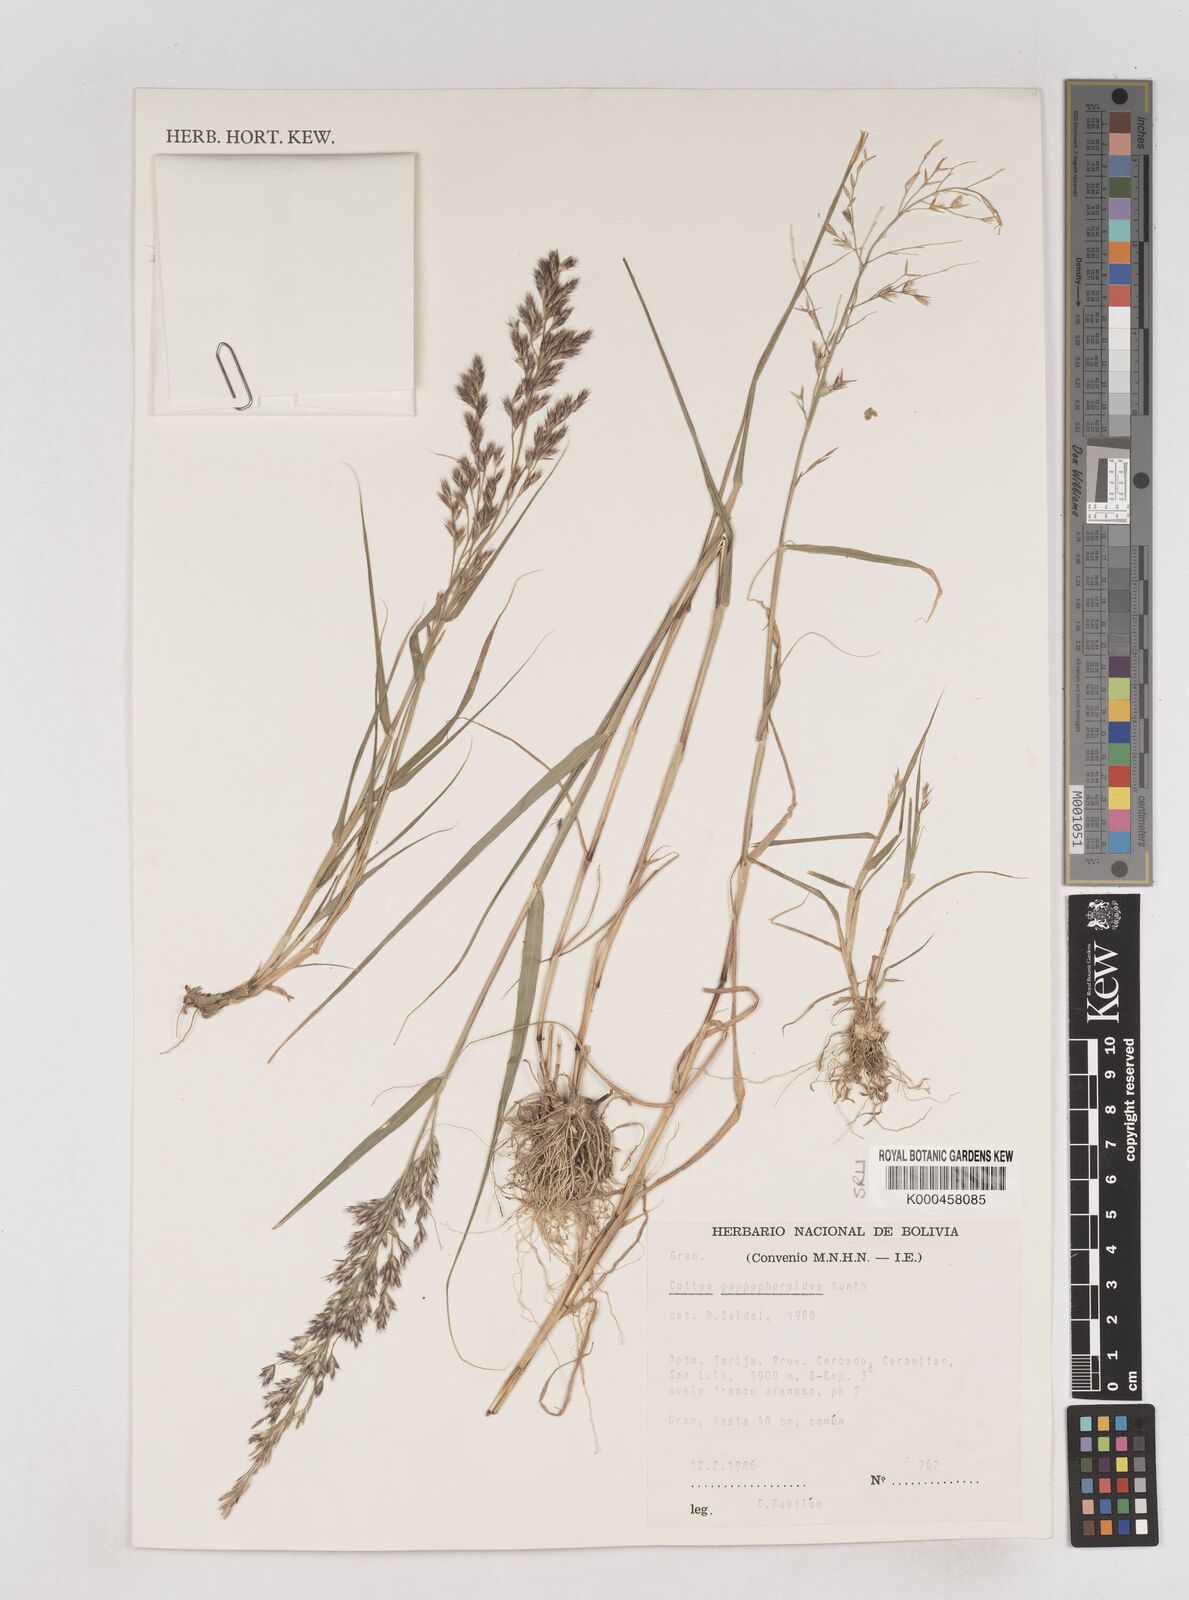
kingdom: Plantae
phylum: Tracheophyta
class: Liliopsida
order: Poales
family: Poaceae
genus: Cottea
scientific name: Cottea
